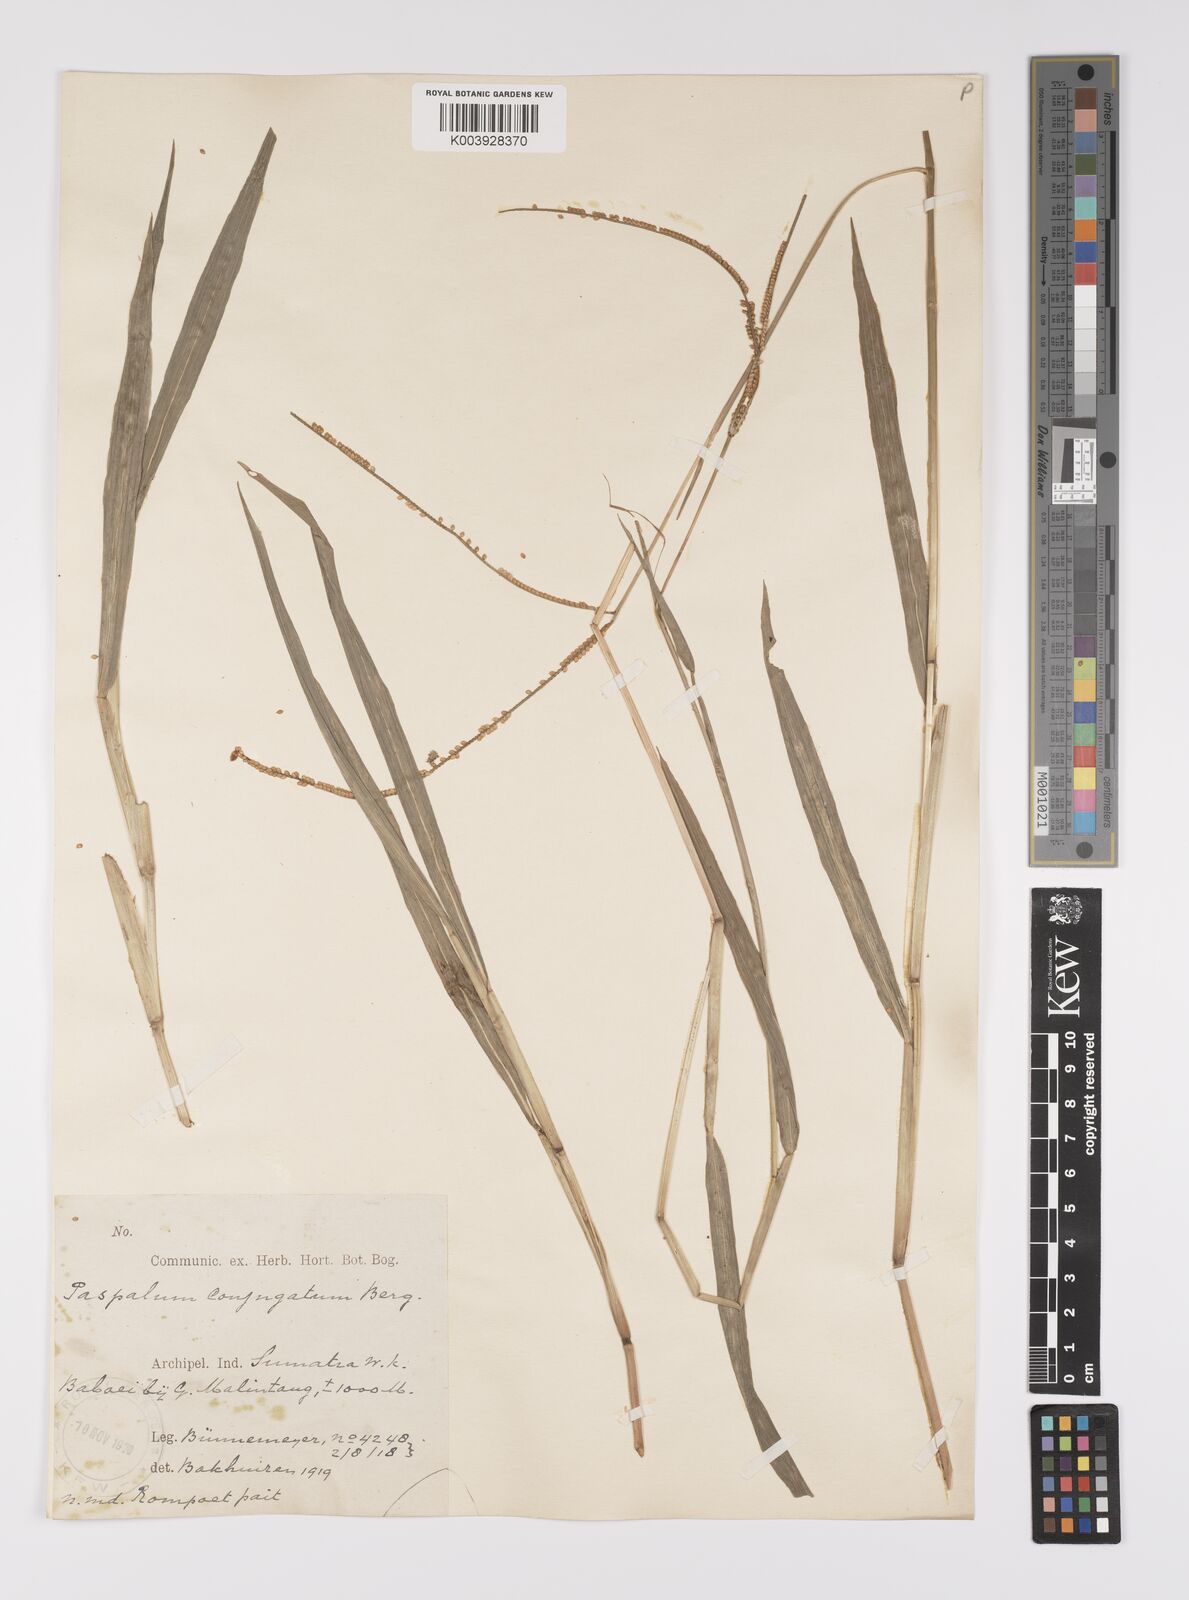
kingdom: Plantae
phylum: Tracheophyta
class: Liliopsida
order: Poales
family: Poaceae
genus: Paspalum
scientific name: Paspalum conjugatum
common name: Hilograss
